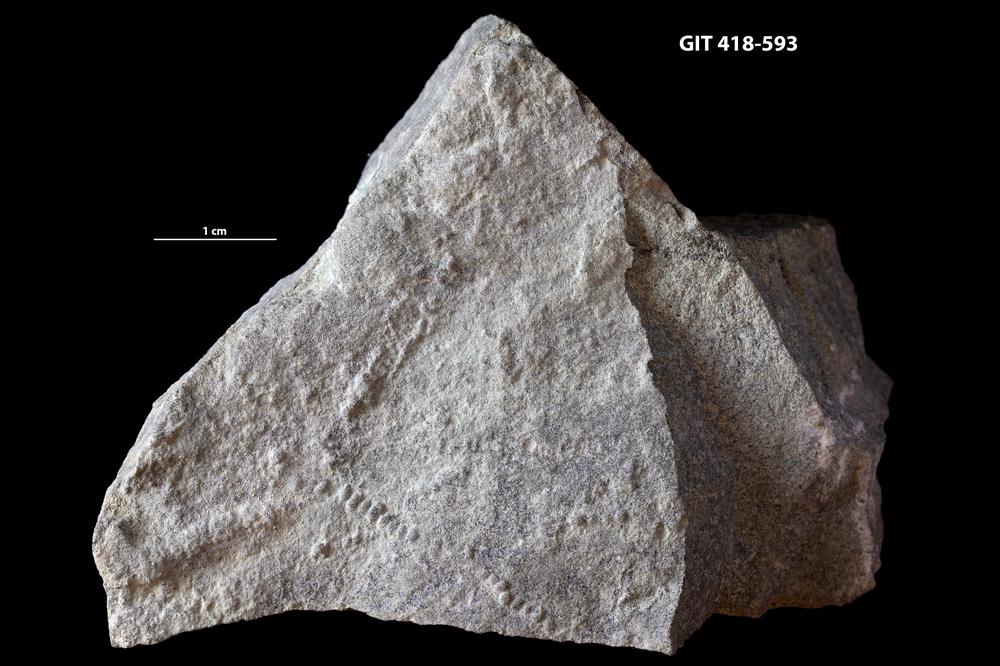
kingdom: Animalia
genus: Palaeopascichnus
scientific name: Palaeopascichnus
